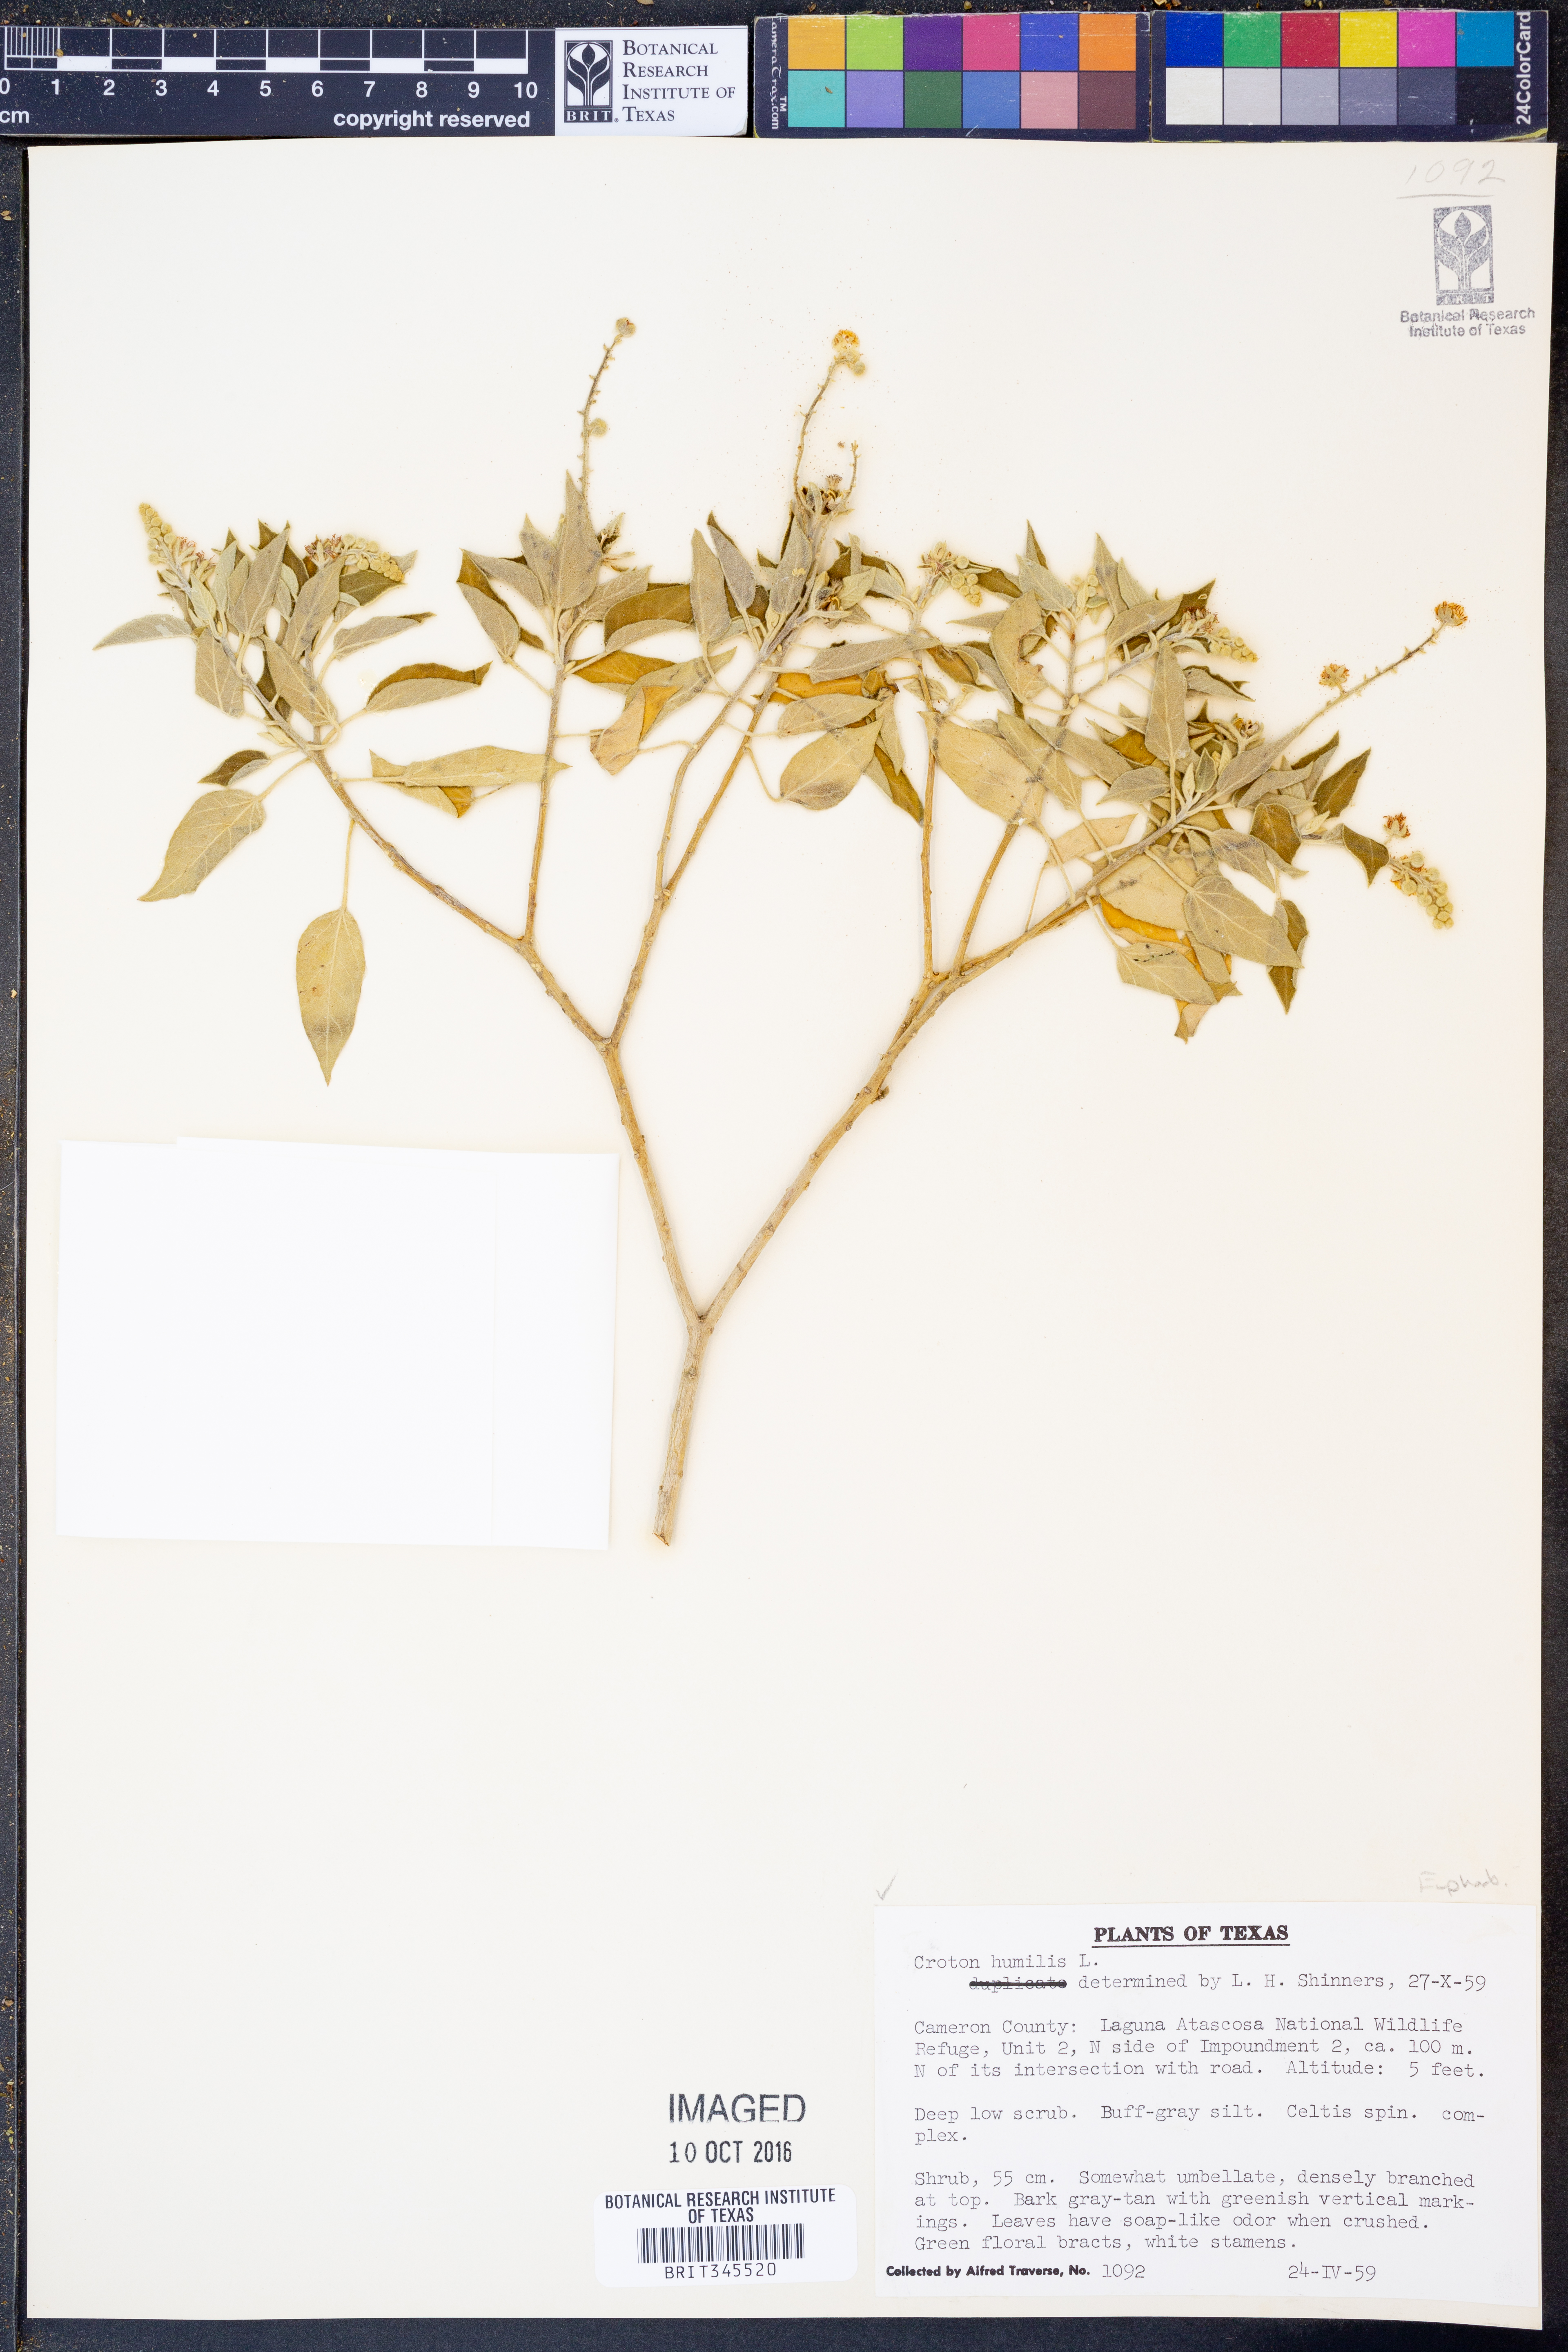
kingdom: Plantae
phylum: Tracheophyta
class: Magnoliopsida
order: Malpighiales
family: Euphorbiaceae
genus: Croton
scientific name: Croton humilis
